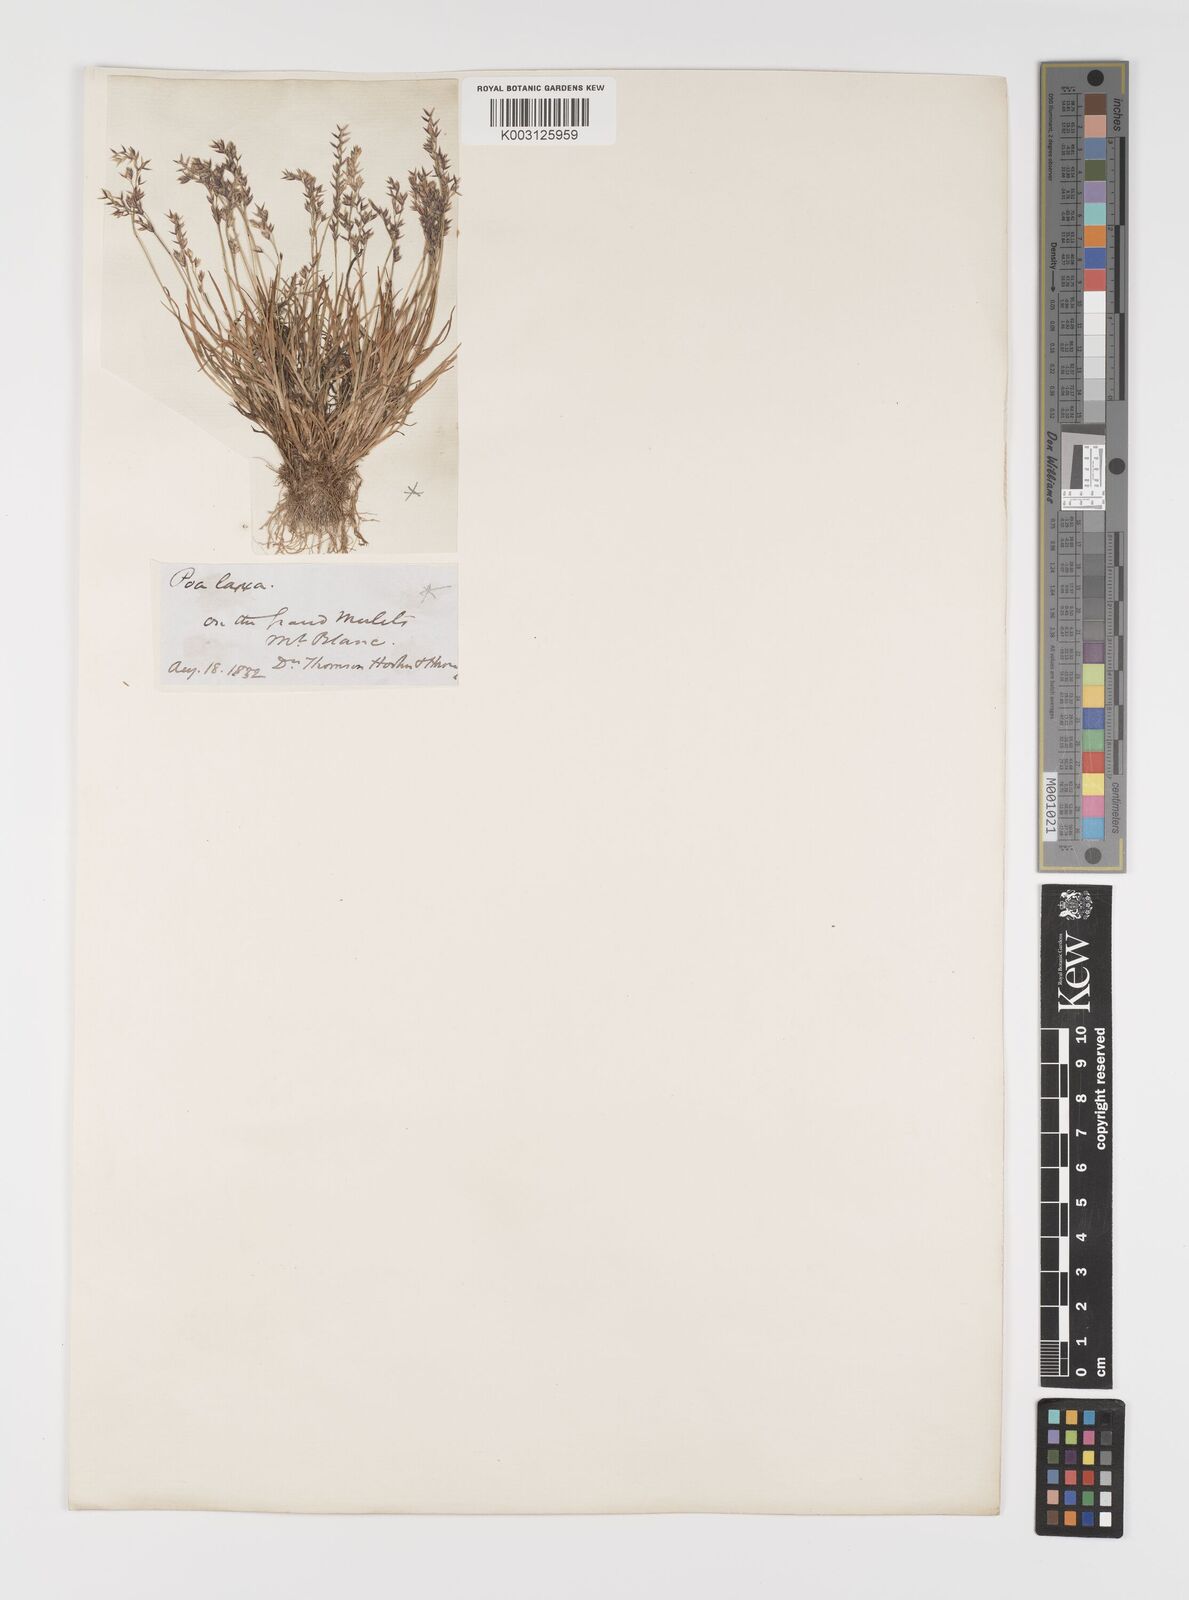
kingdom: Plantae
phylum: Tracheophyta
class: Liliopsida
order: Poales
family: Poaceae
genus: Poa
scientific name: Poa laxa
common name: Lax bluegrass
